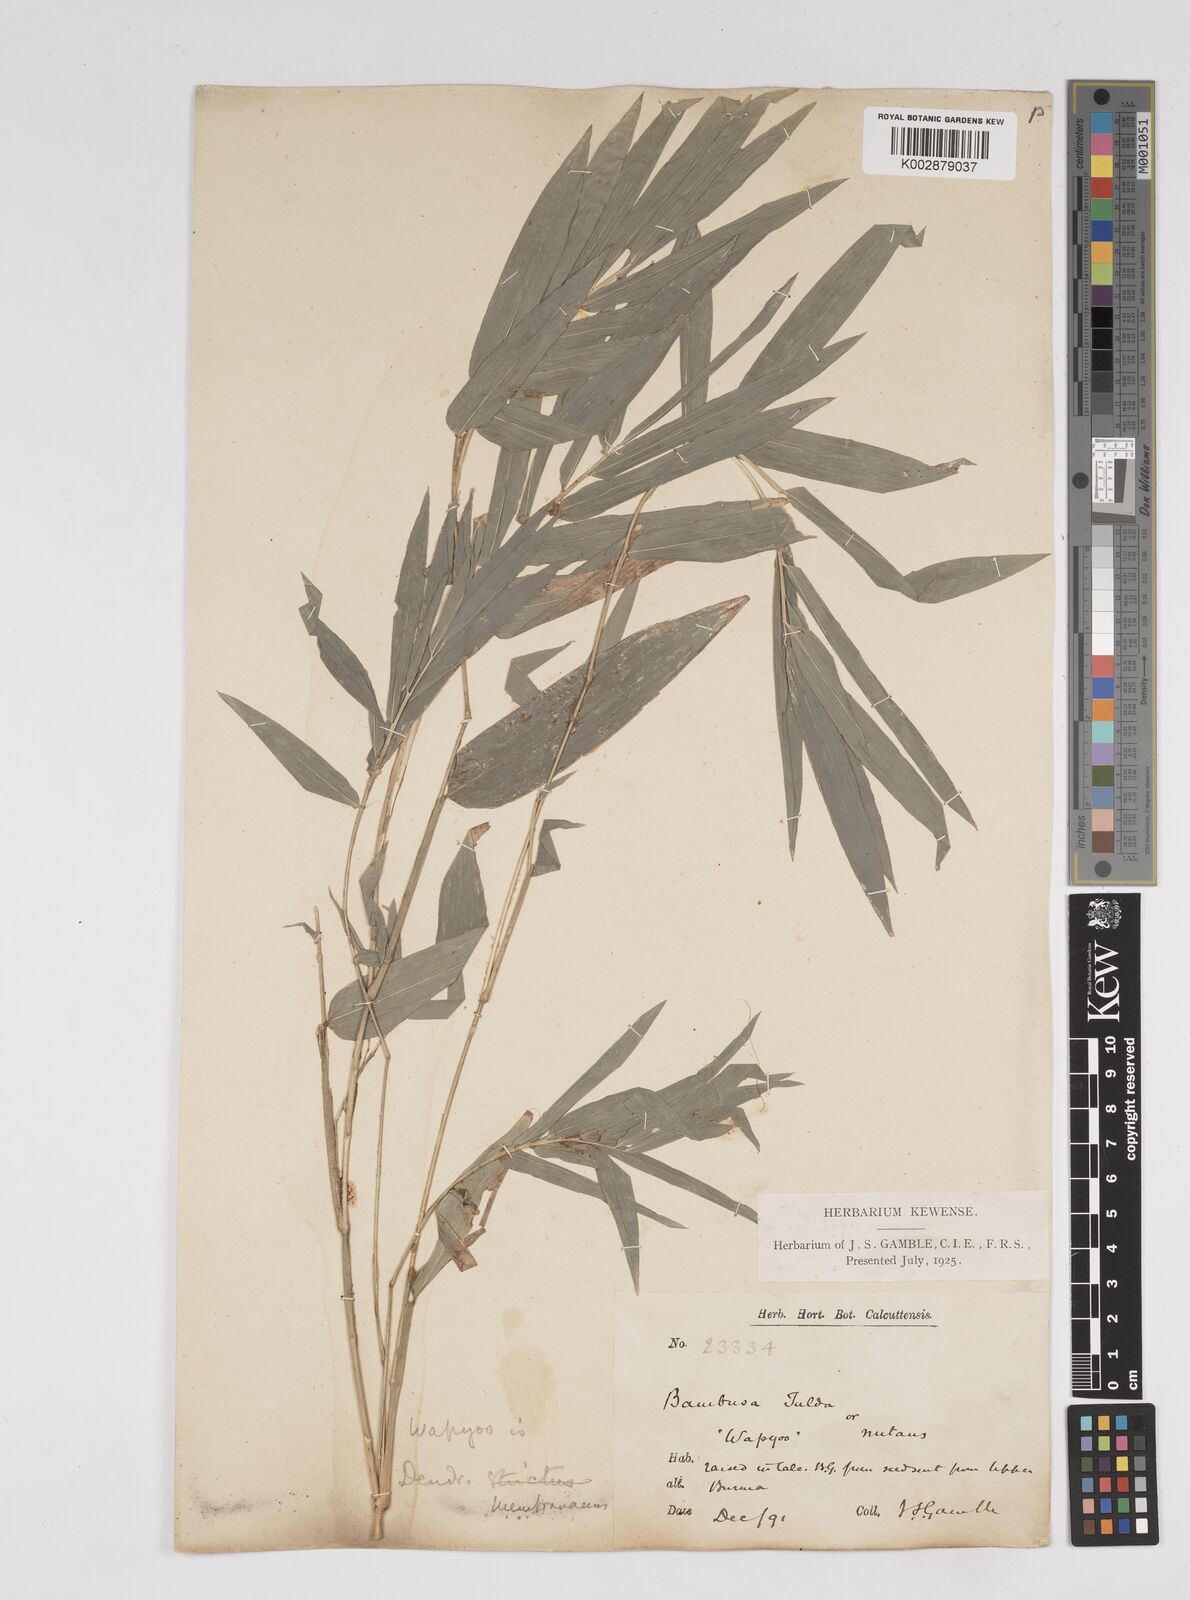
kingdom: Plantae
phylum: Tracheophyta
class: Liliopsida
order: Poales
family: Poaceae
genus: Dendrocalamus
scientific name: Dendrocalamus membranaceus
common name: White bamboo
